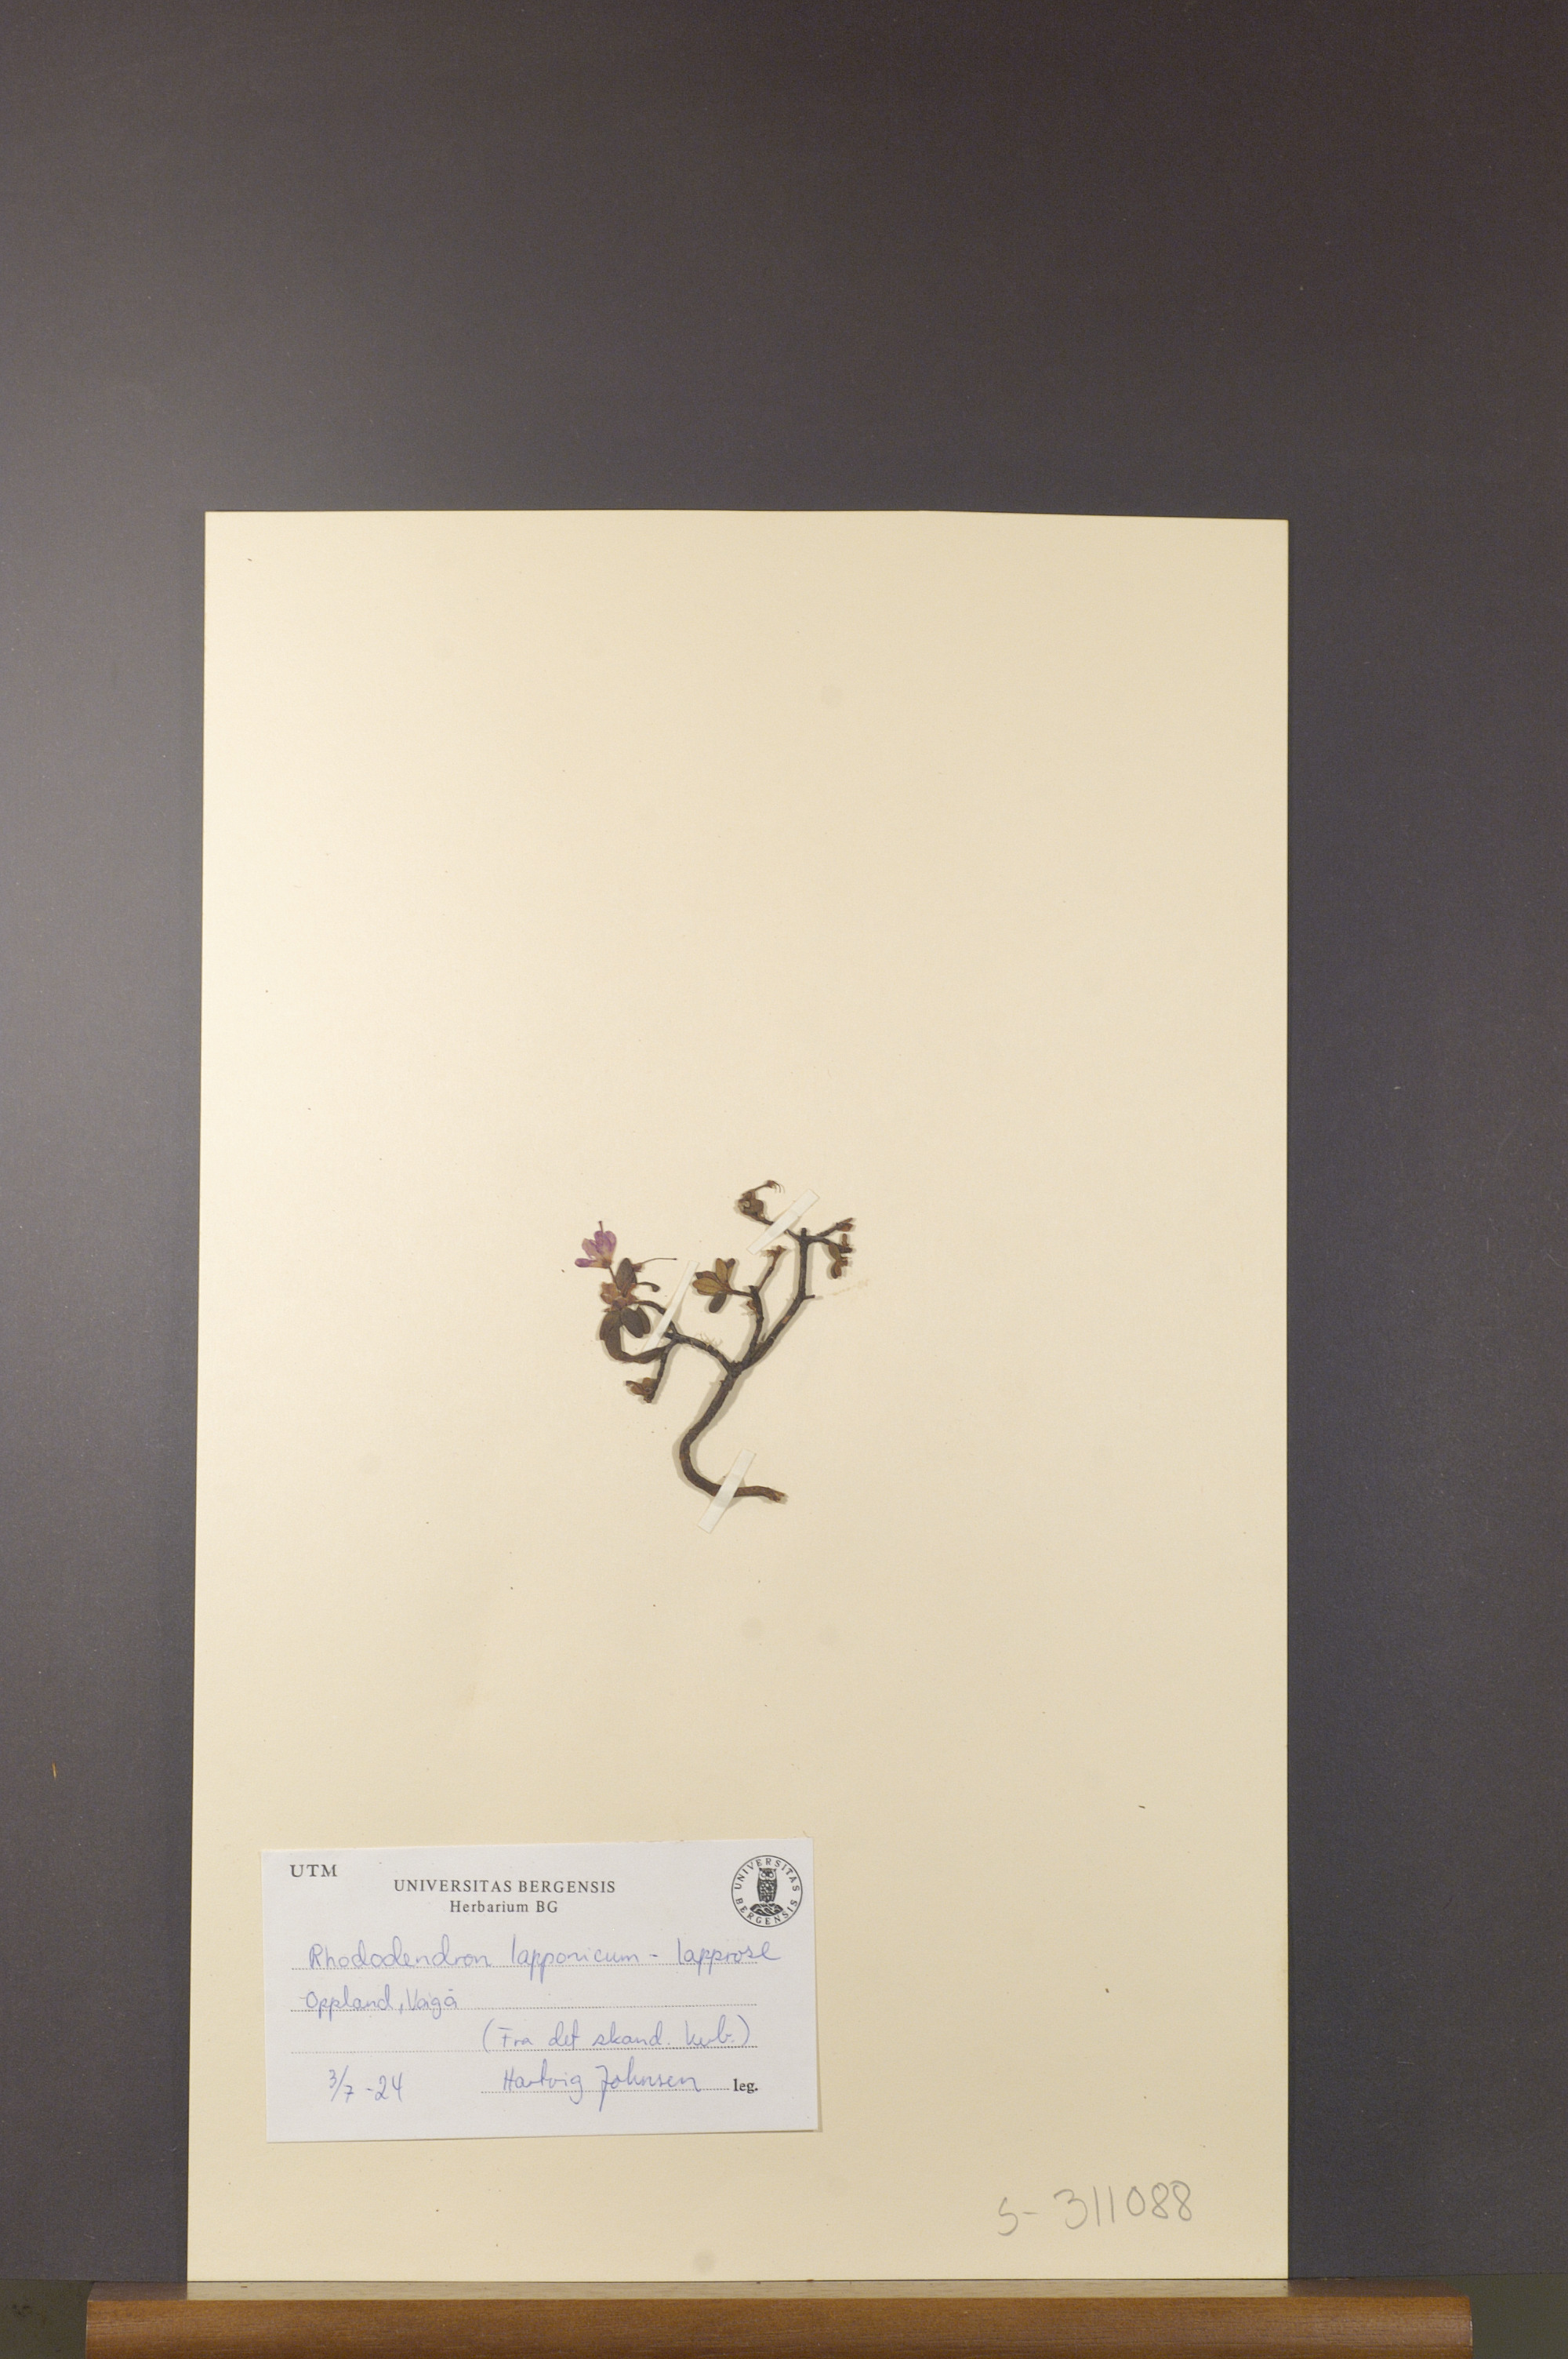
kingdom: Plantae
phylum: Tracheophyta
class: Magnoliopsida
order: Ericales
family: Ericaceae
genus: Rhododendron
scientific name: Rhododendron lapponicum
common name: Lapland rhododendron
